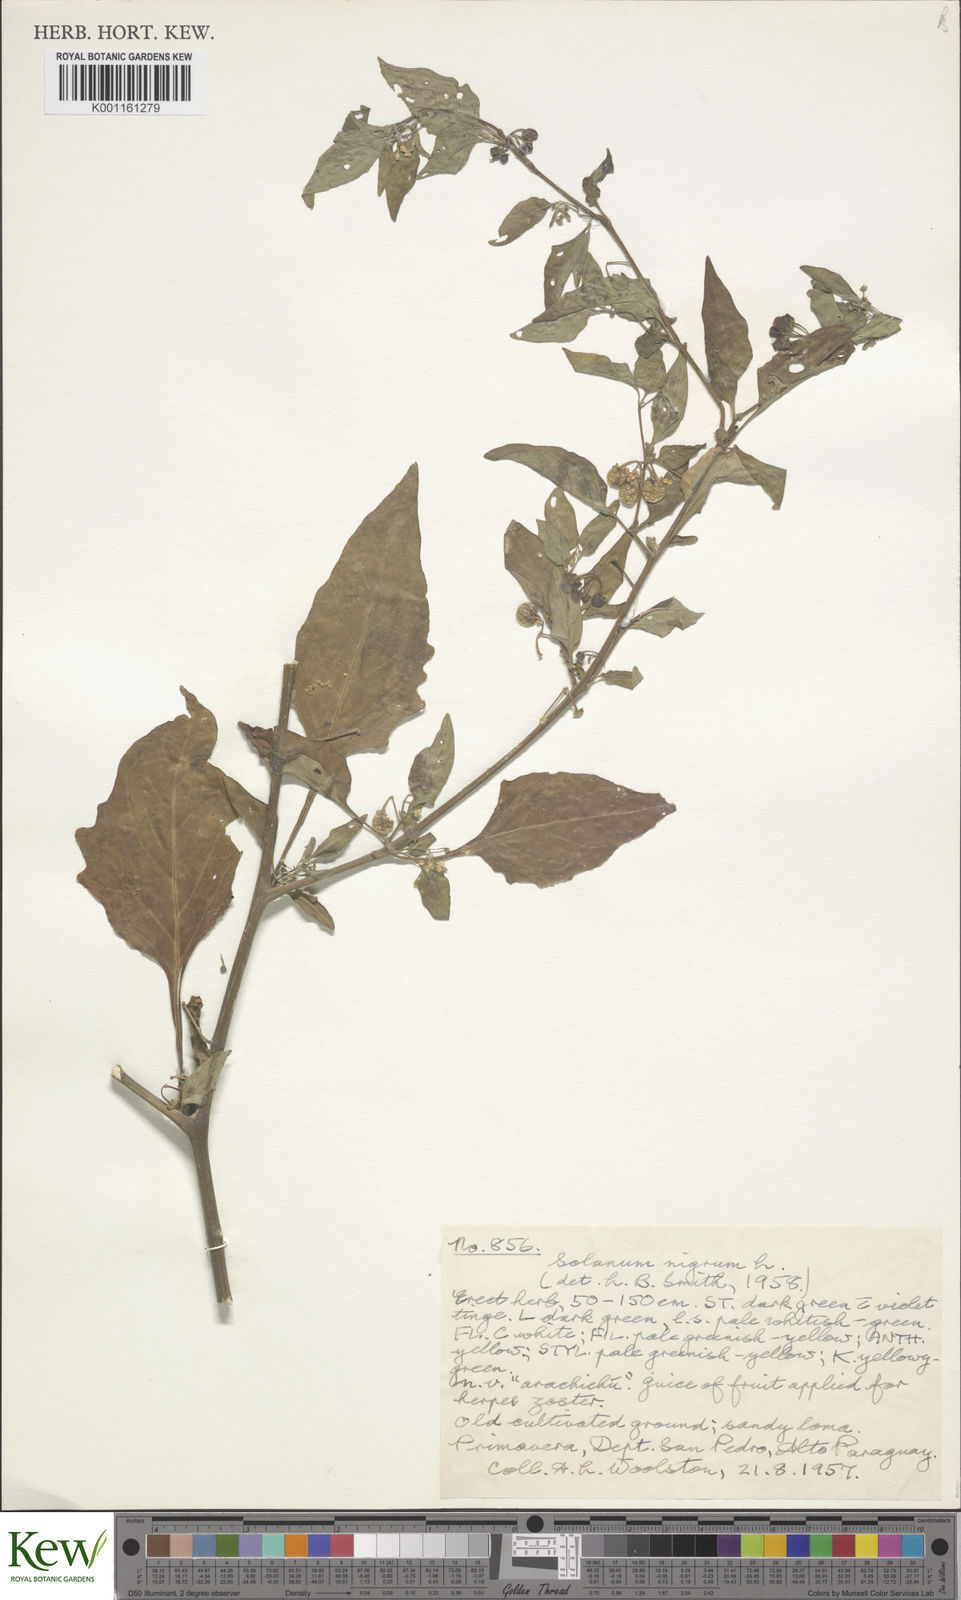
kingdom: Plantae
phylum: Tracheophyta
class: Magnoliopsida
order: Solanales
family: Solanaceae
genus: Solanum
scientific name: Solanum nigrum
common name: Black nightshade
